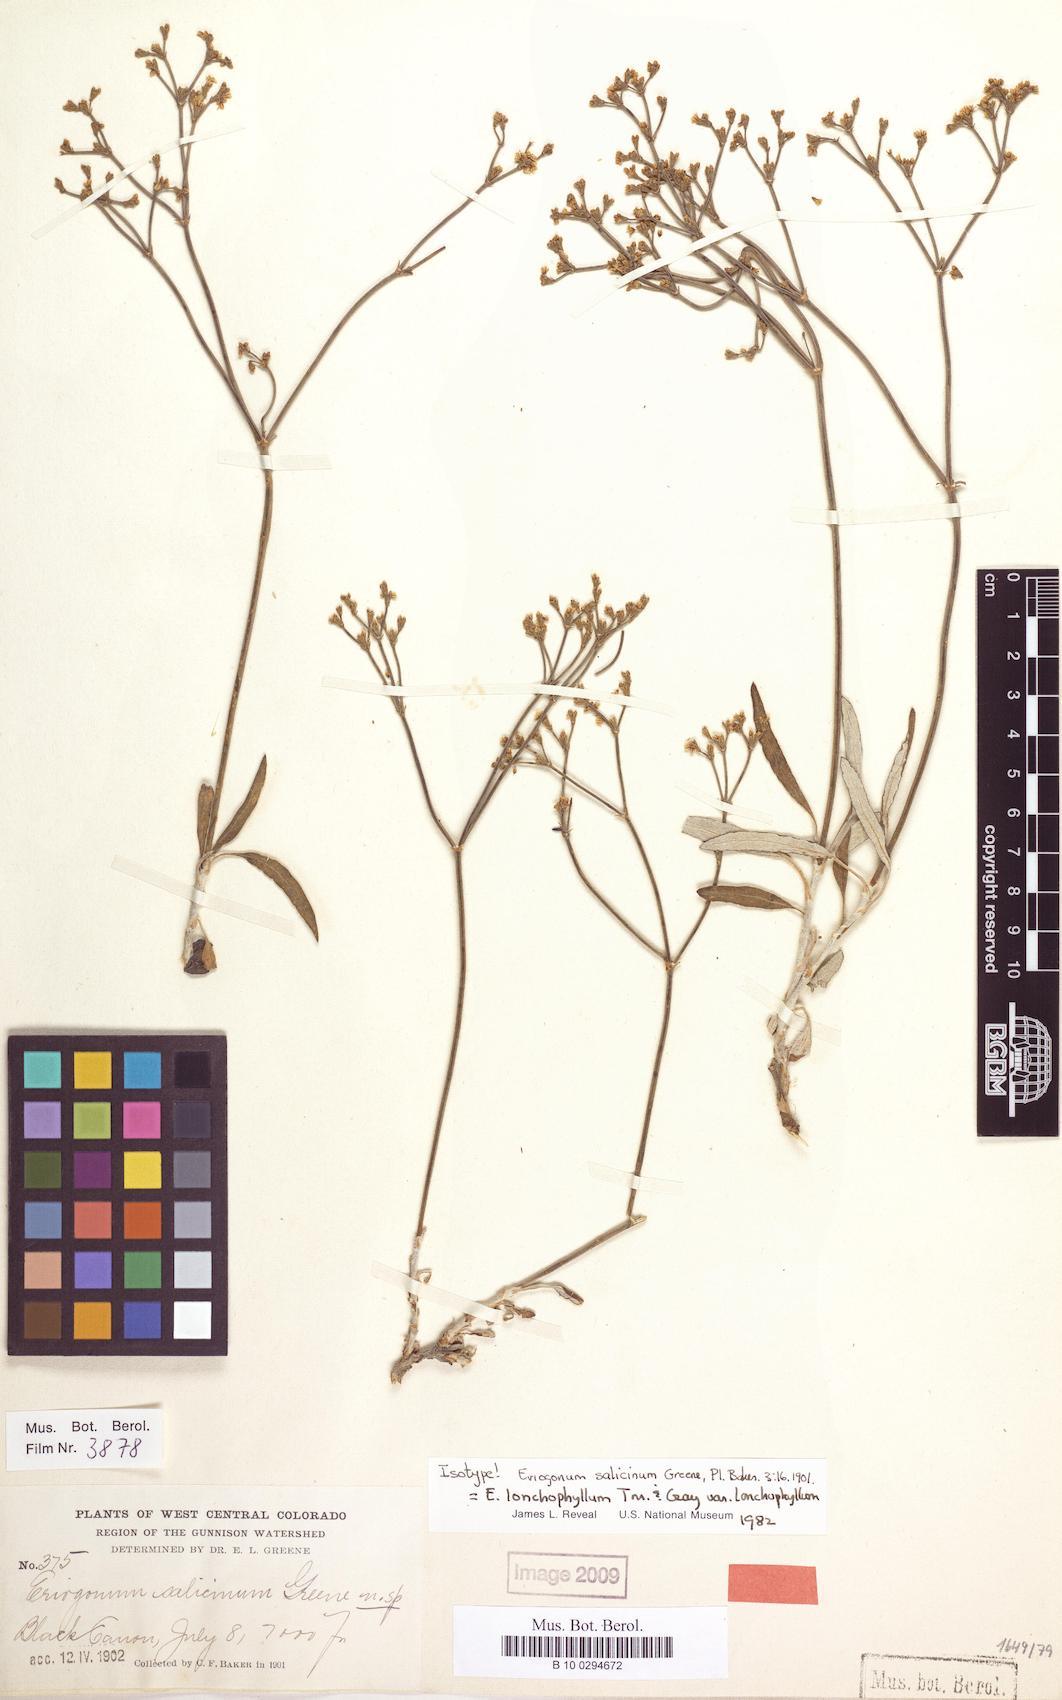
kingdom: Plantae
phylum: Tracheophyta
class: Magnoliopsida
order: Caryophyllales
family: Polygonaceae
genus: Eriogonum
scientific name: Eriogonum lonchophyllum
